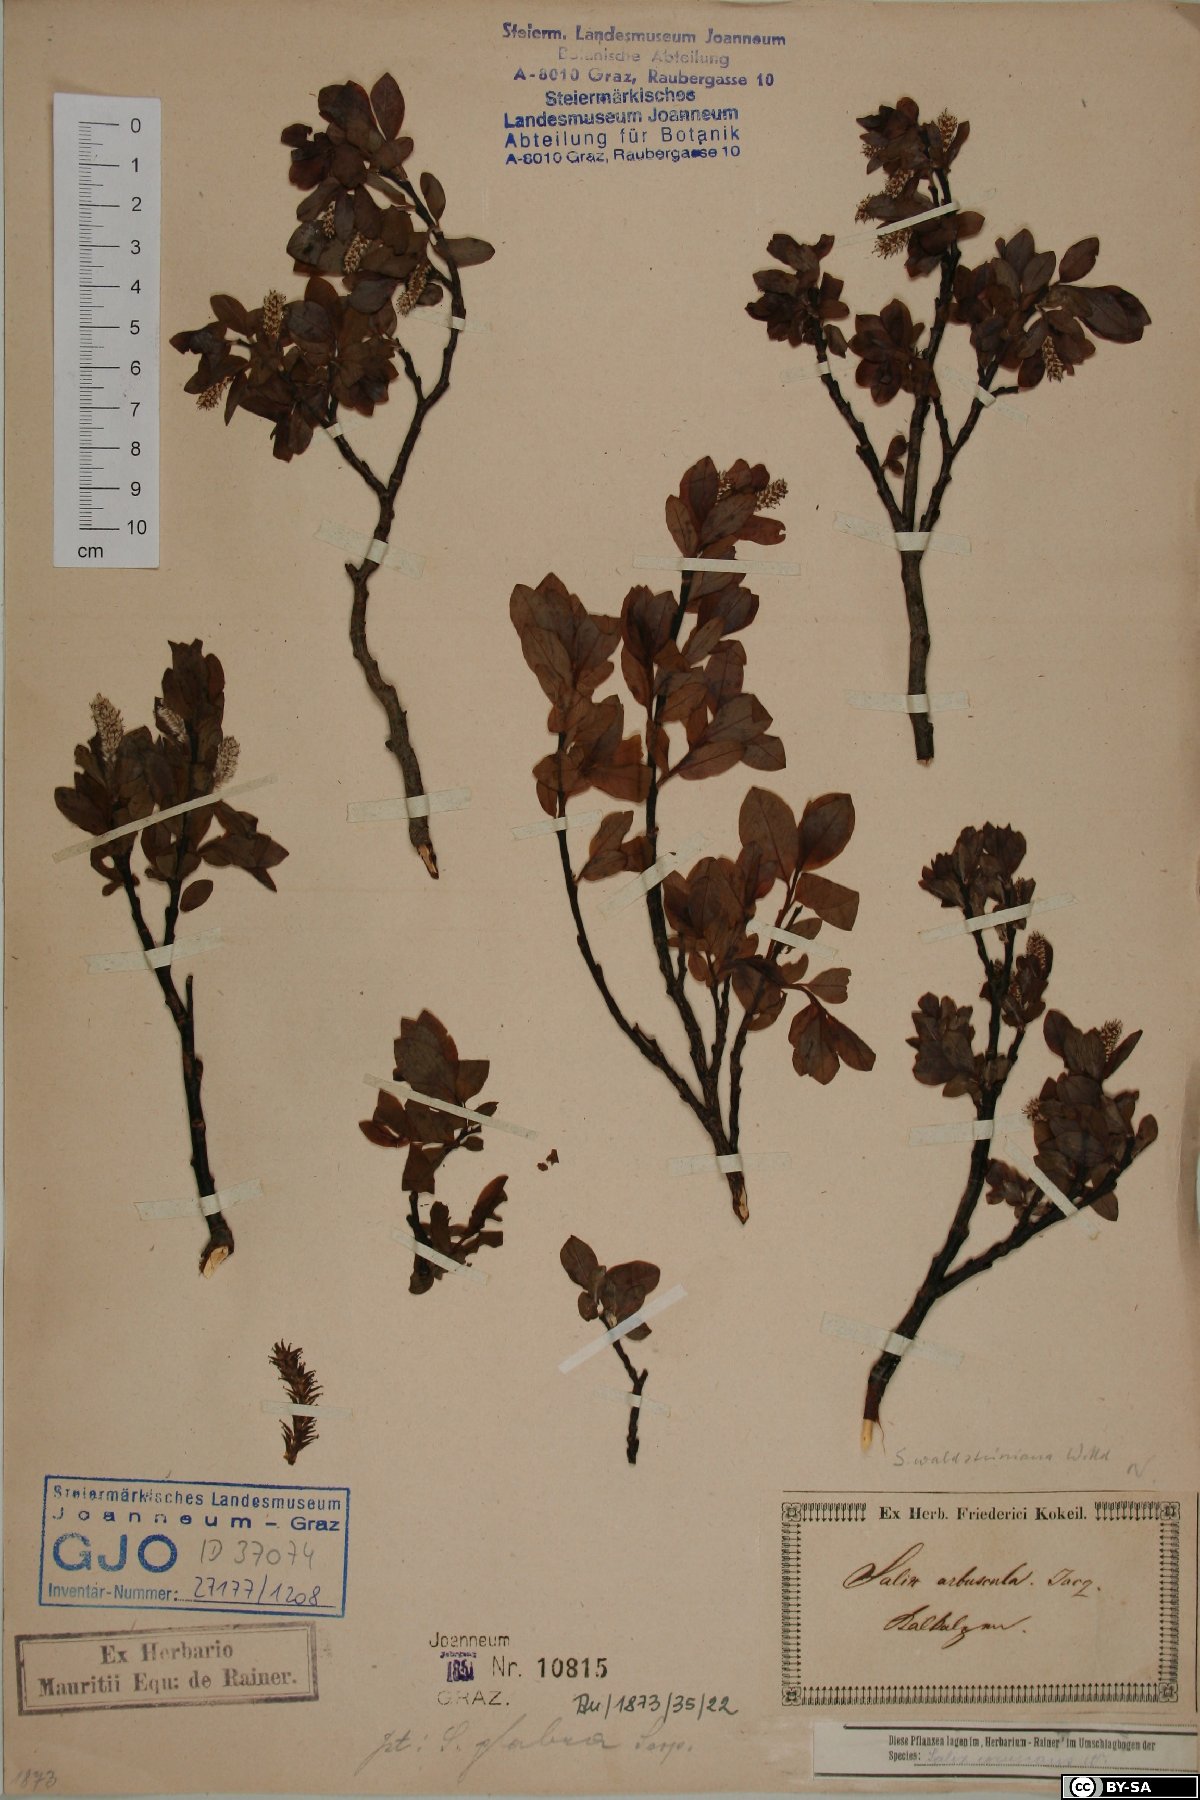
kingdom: Plantae
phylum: Tracheophyta
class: Magnoliopsida
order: Malpighiales
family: Salicaceae
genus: Salix
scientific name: Salix waldsteiniana
